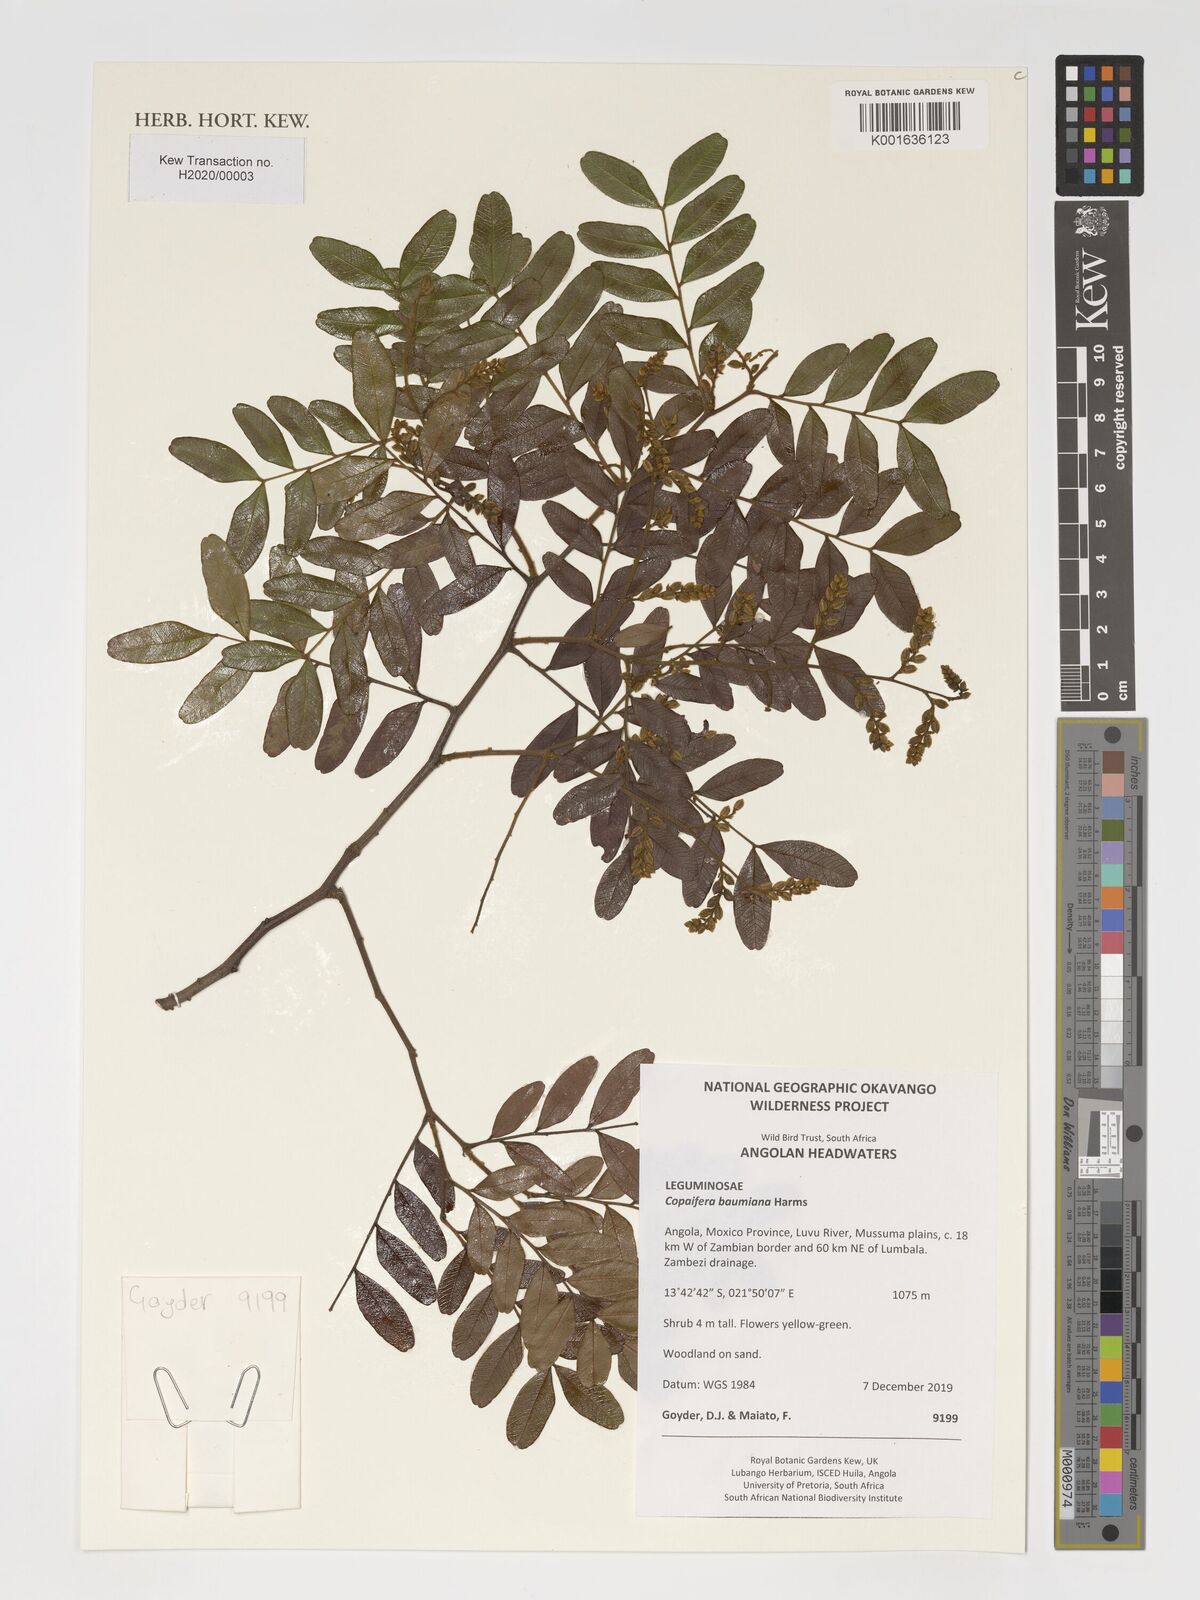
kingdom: Plantae
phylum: Tracheophyta
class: Magnoliopsida
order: Fabales
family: Fabaceae
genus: Copaifera
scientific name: Copaifera baumiana
